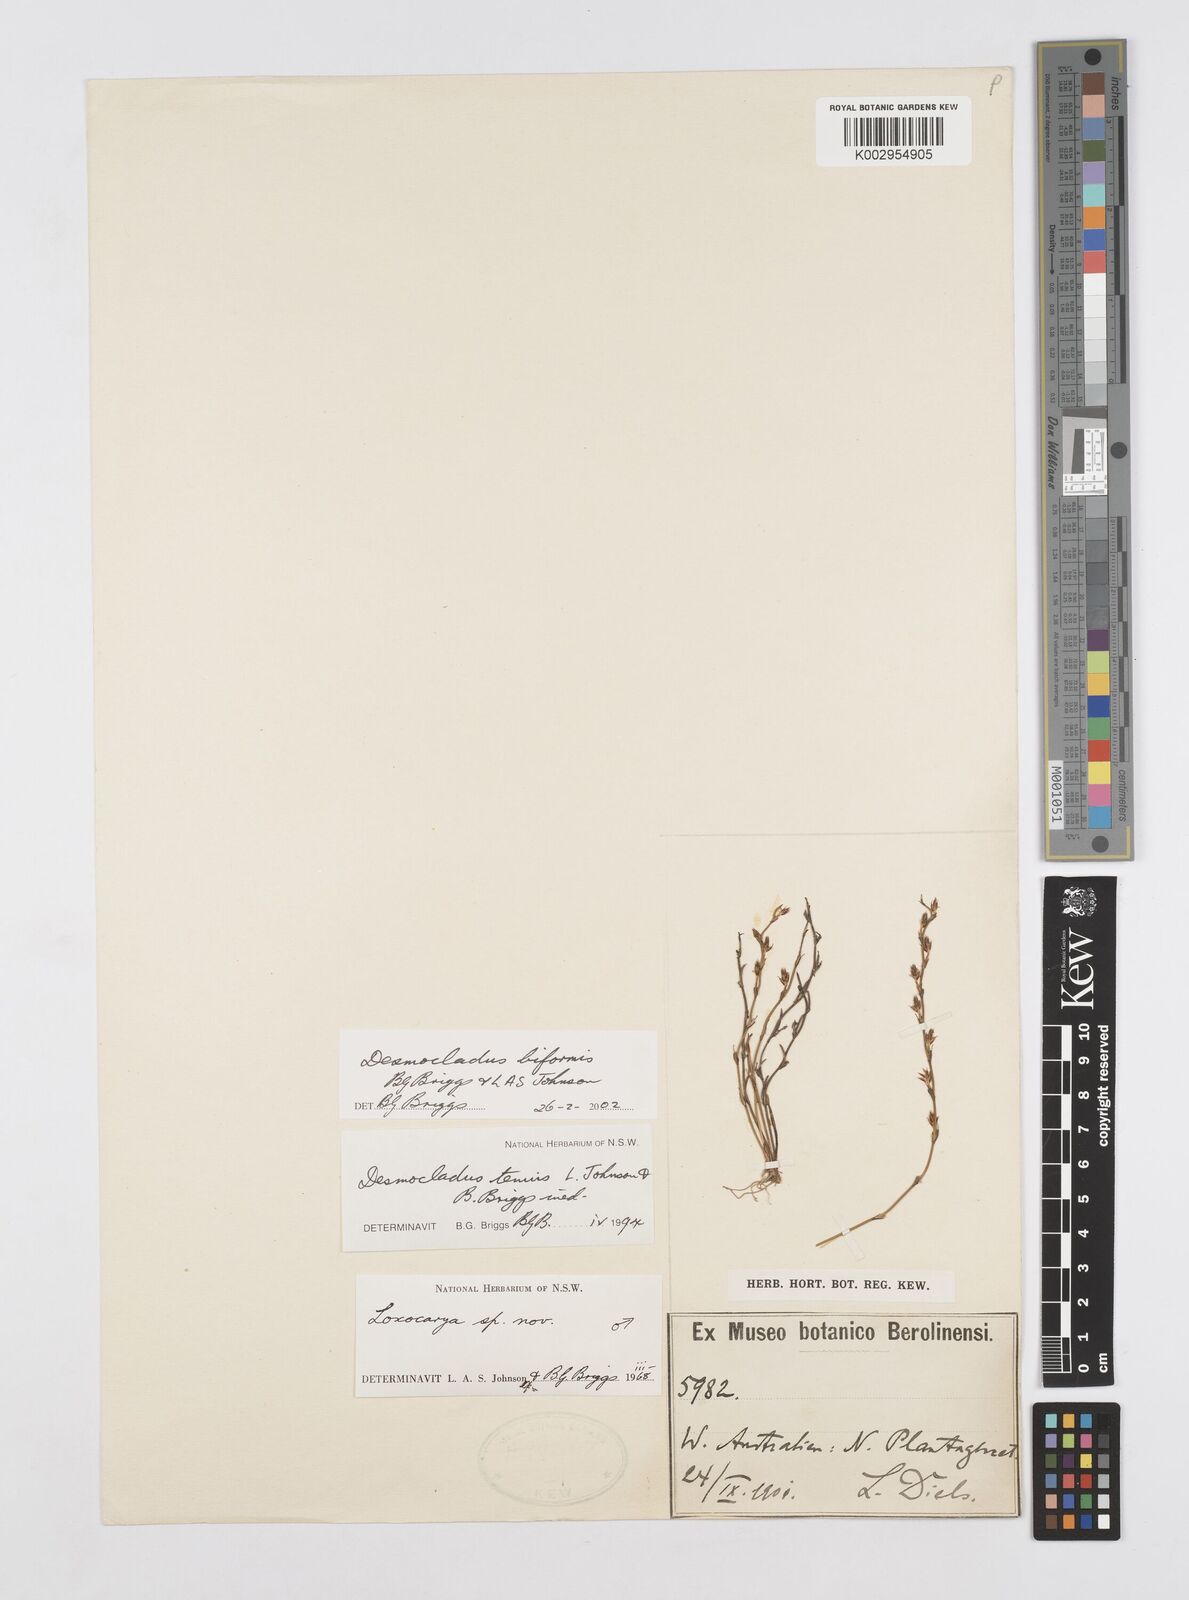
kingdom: Plantae
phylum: Tracheophyta
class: Liliopsida
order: Poales
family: Restionaceae
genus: Desmocladus
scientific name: Desmocladus biformis
